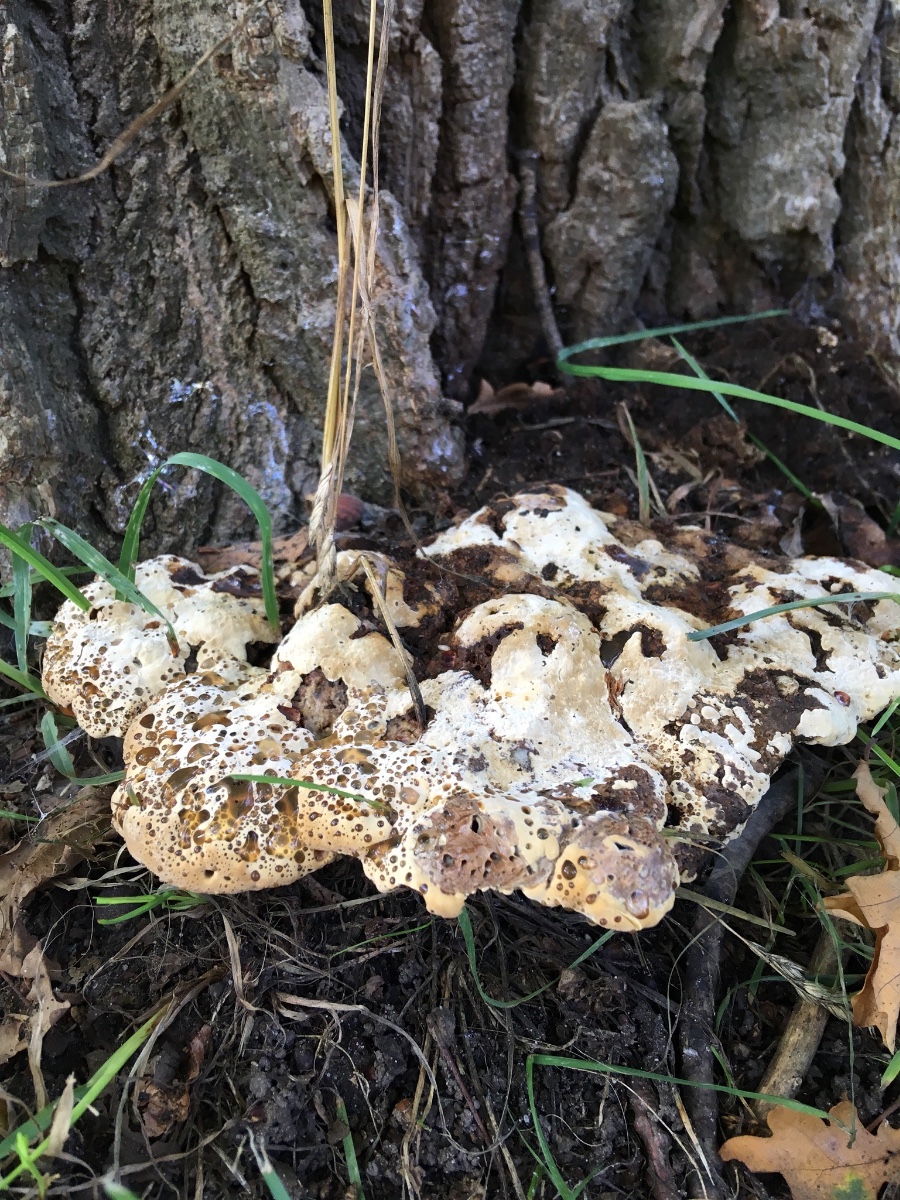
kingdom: Fungi
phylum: Basidiomycota
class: Agaricomycetes
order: Hymenochaetales
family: Hymenochaetaceae
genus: Pseudoinonotus
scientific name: Pseudoinonotus dryadeus
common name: ege-spejlporesvamp
